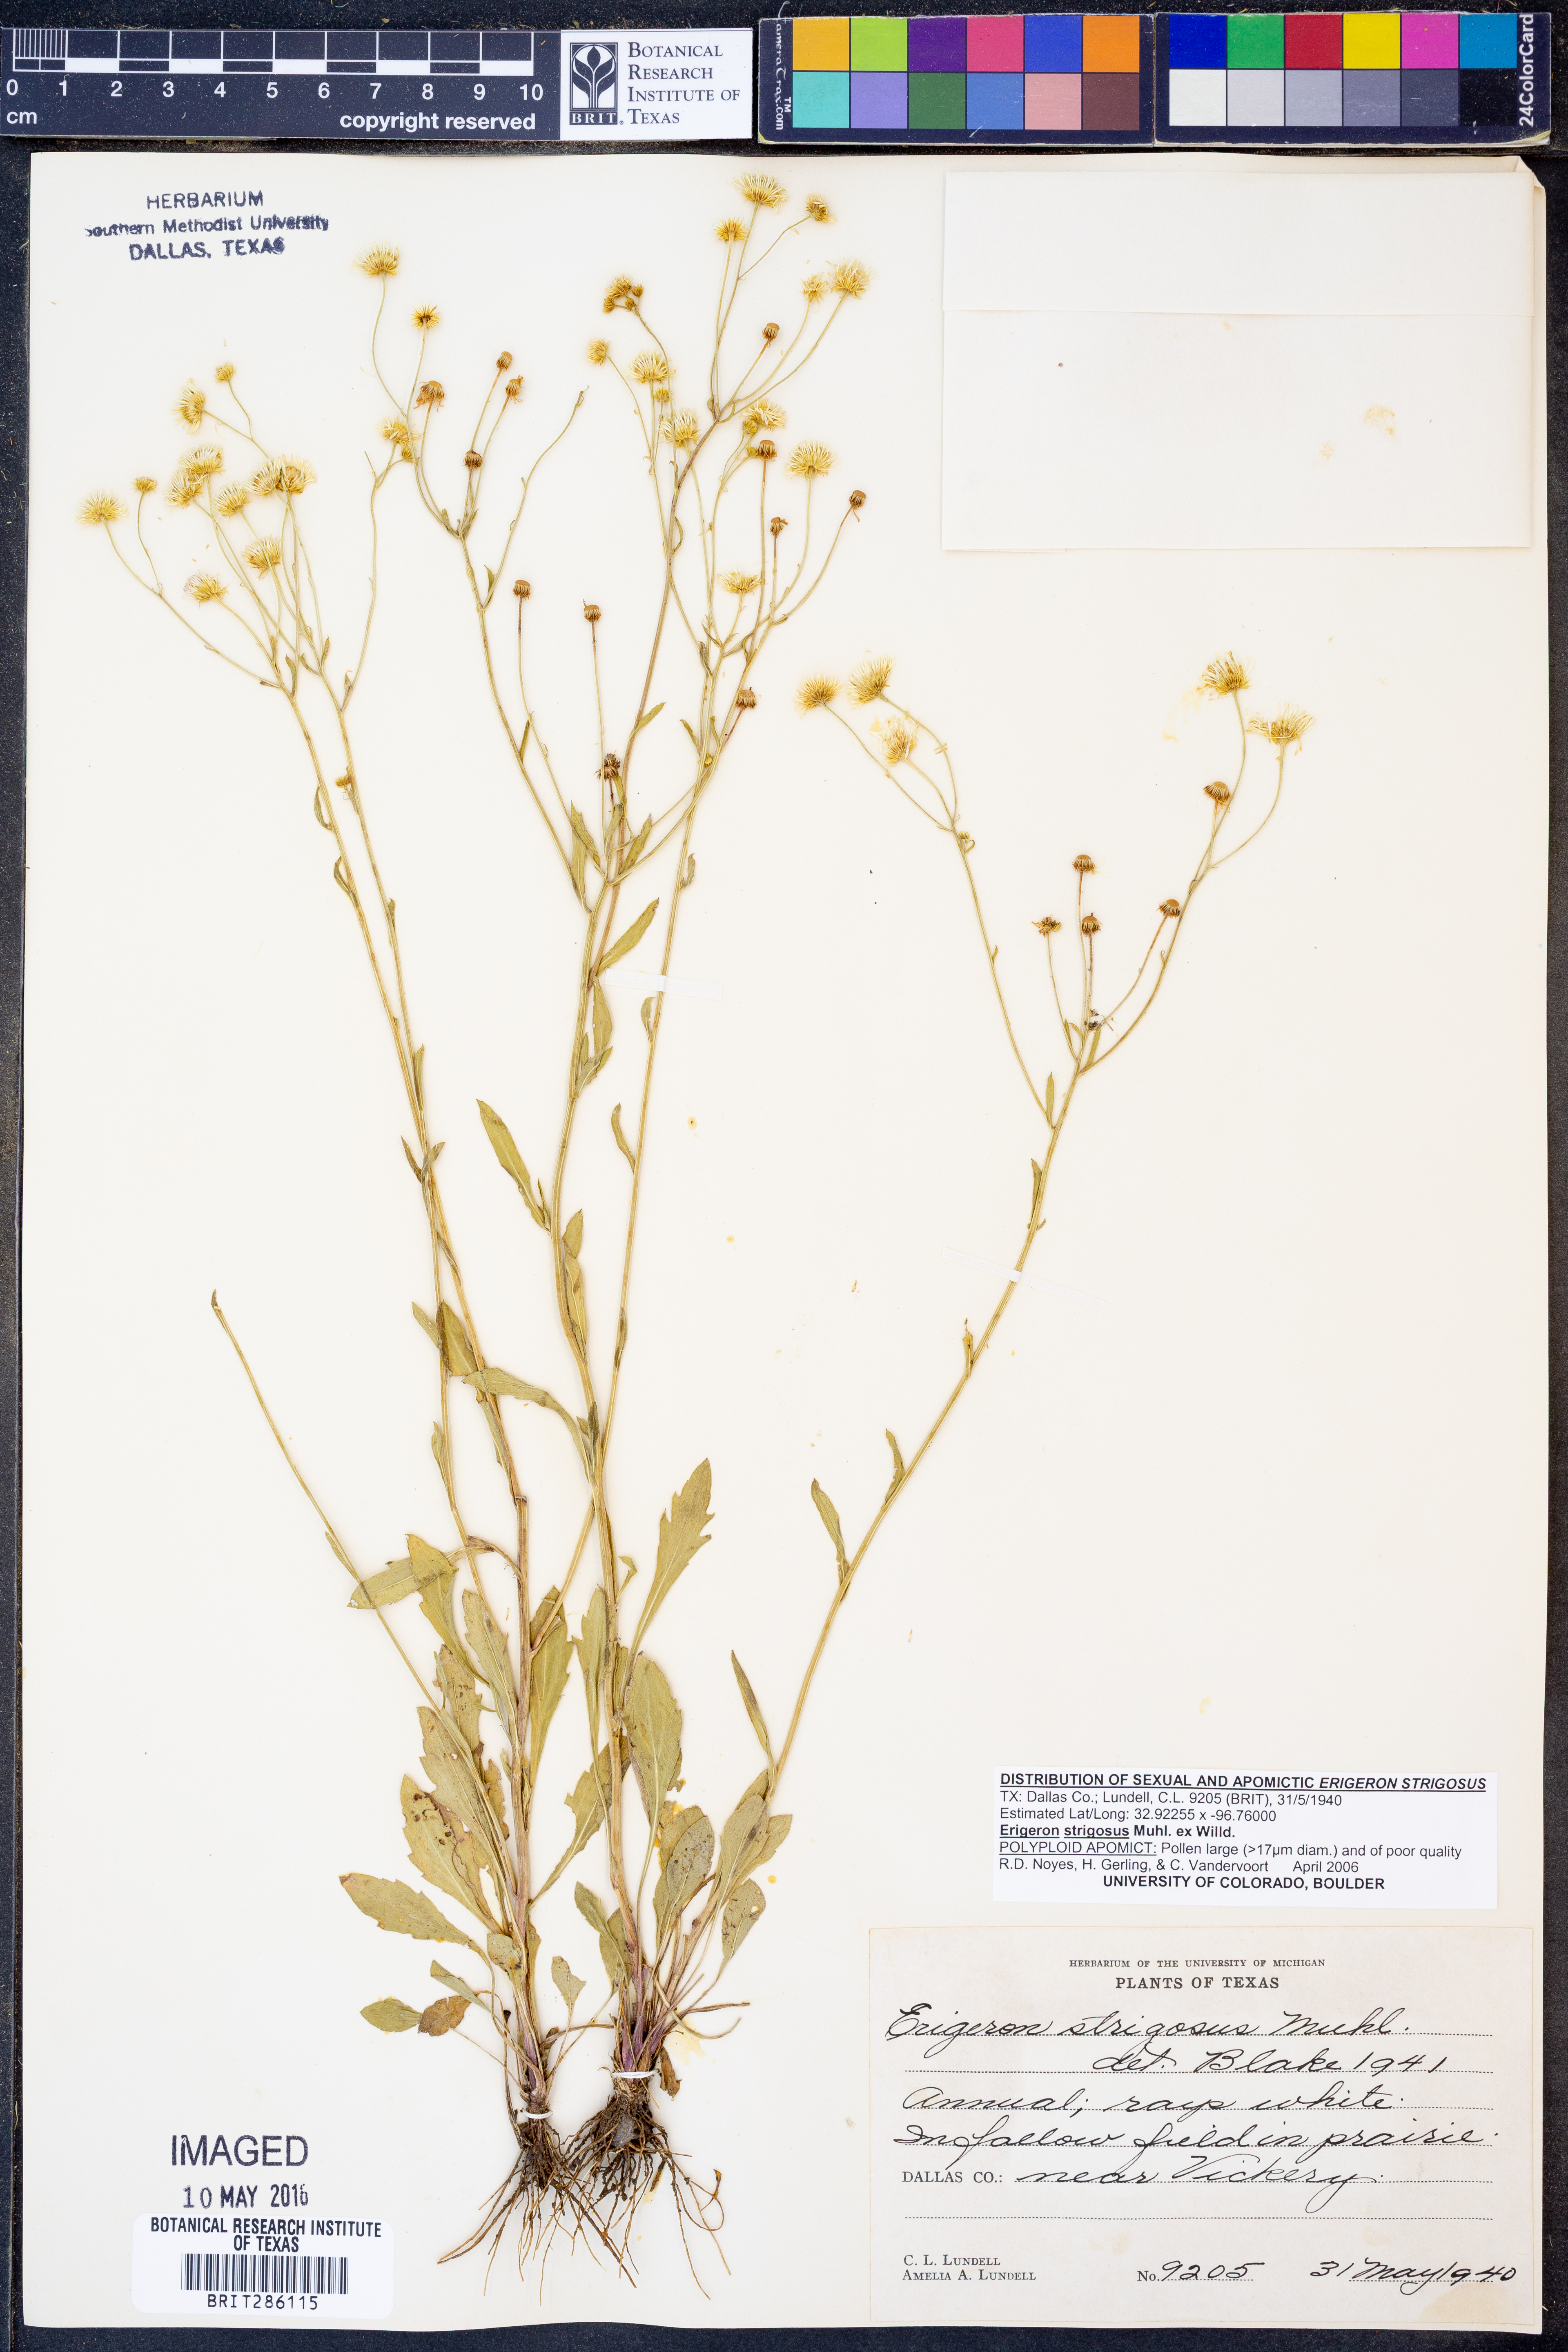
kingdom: Plantae
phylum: Tracheophyta
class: Magnoliopsida
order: Asterales
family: Asteraceae
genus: Erigeron
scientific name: Erigeron strigosus
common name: Common eastern fleabane
